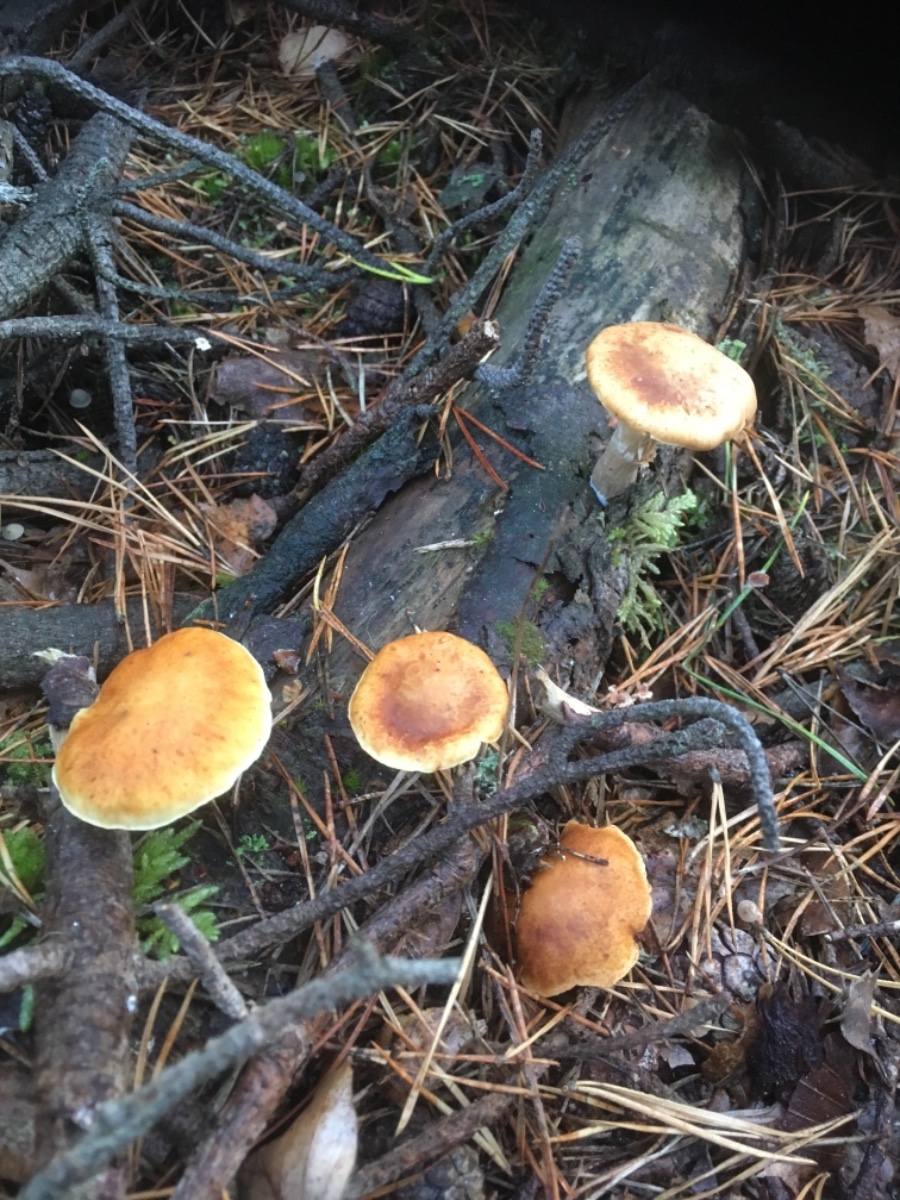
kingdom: Fungi
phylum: Basidiomycota
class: Agaricomycetes
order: Agaricales
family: Hymenogastraceae
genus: Gymnopilus
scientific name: Gymnopilus penetrans
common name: plettet flammehat
